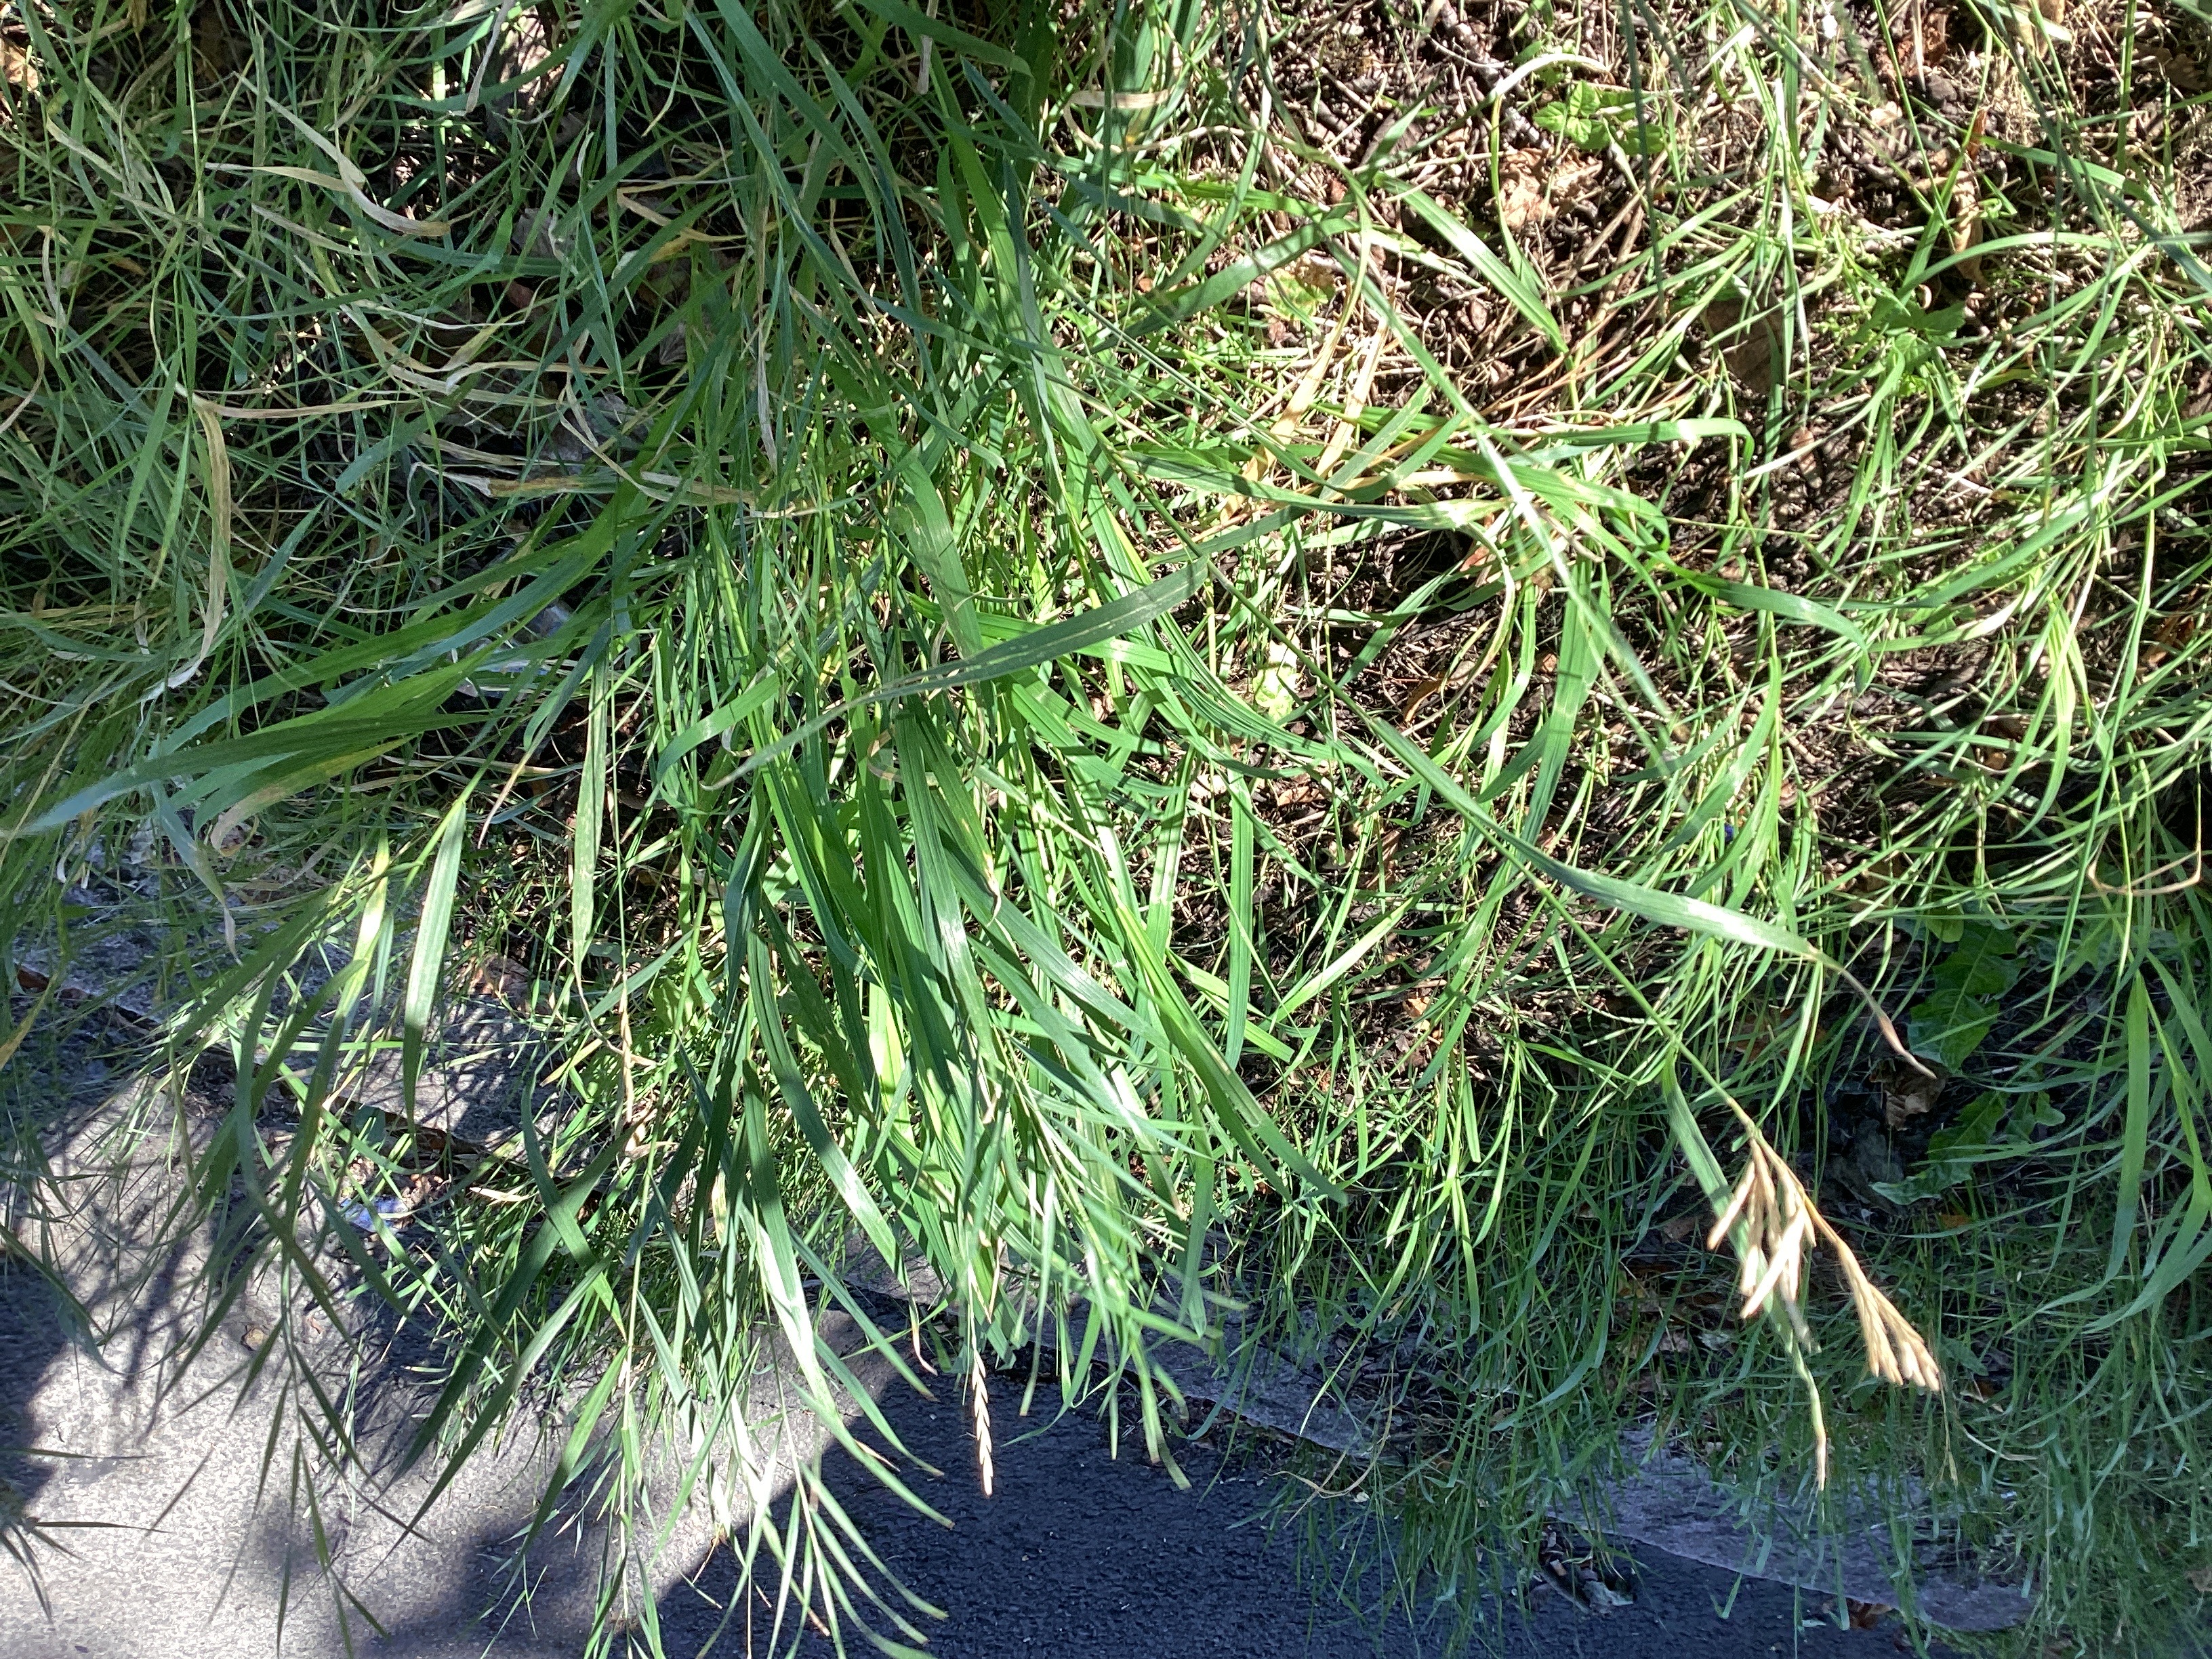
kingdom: Plantae
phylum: Tracheophyta
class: Liliopsida
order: Poales
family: Poaceae
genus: Bromus
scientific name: Bromus inermis
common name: bladfaks
